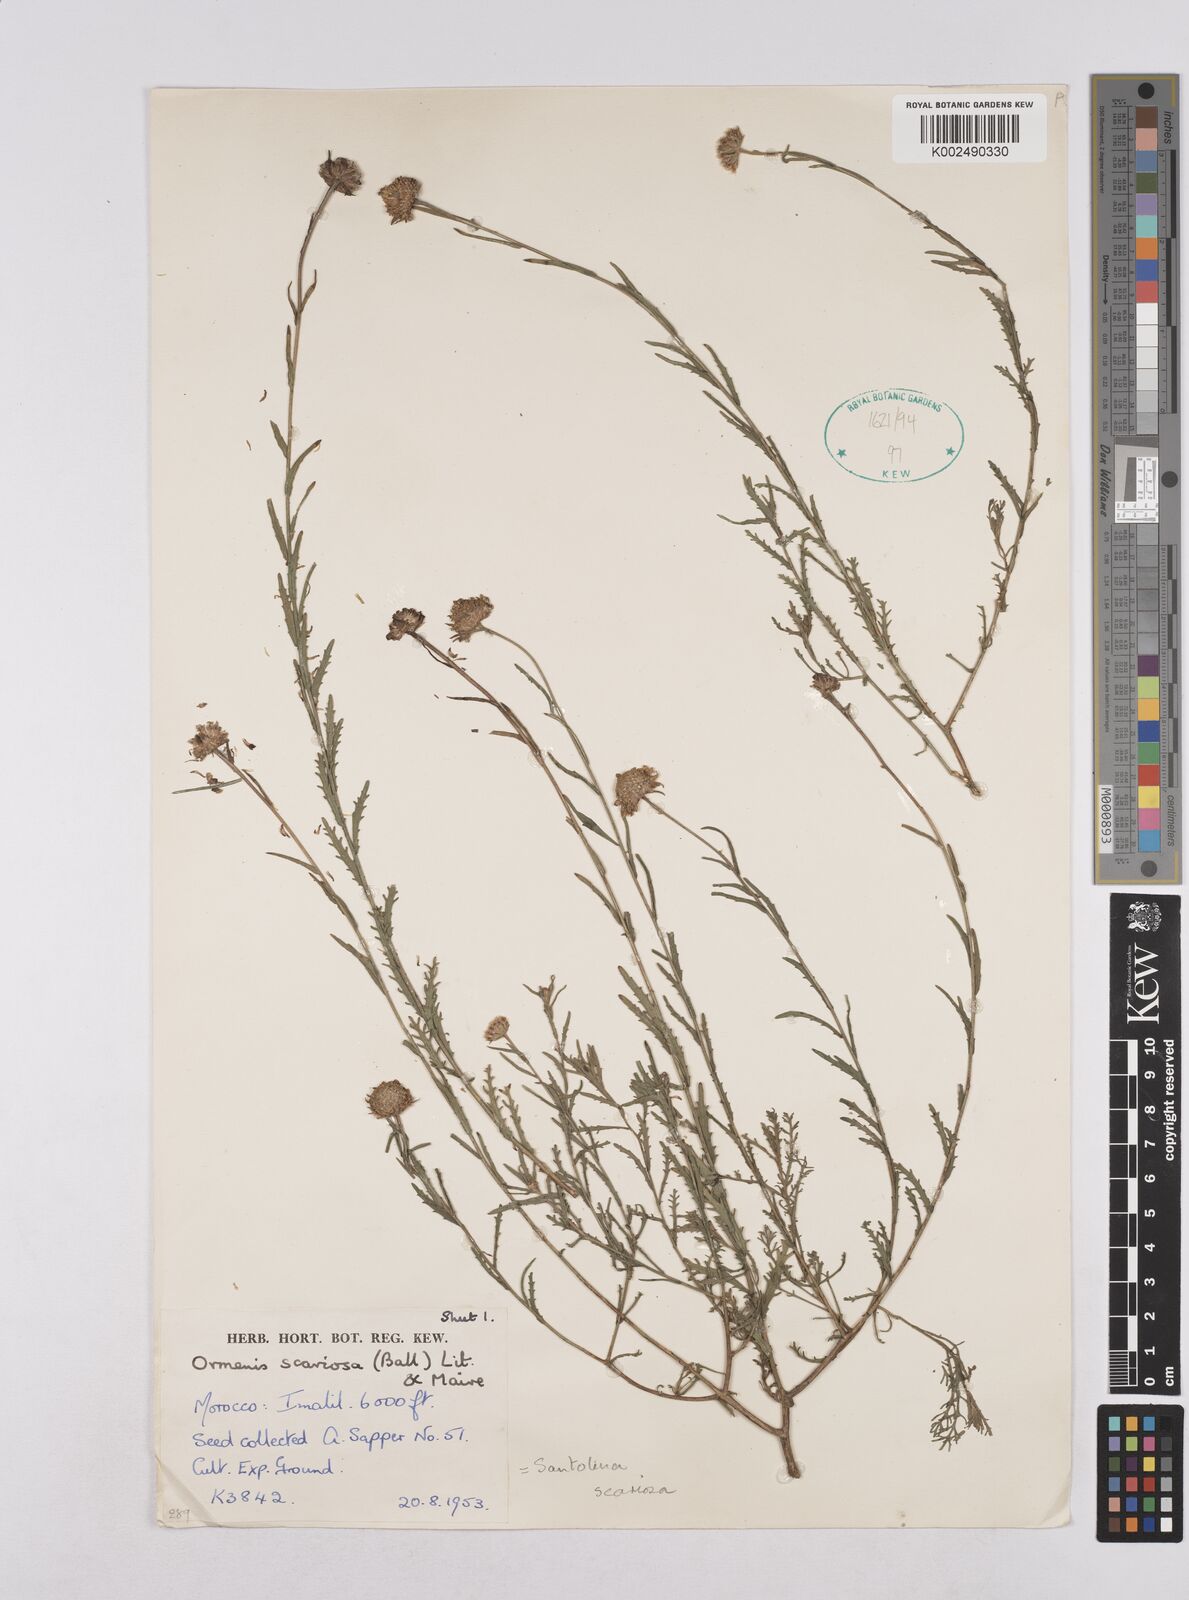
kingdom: Plantae
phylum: Tracheophyta
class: Magnoliopsida
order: Asterales
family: Asteraceae
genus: Cladanthus
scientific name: Cladanthus scariosus
